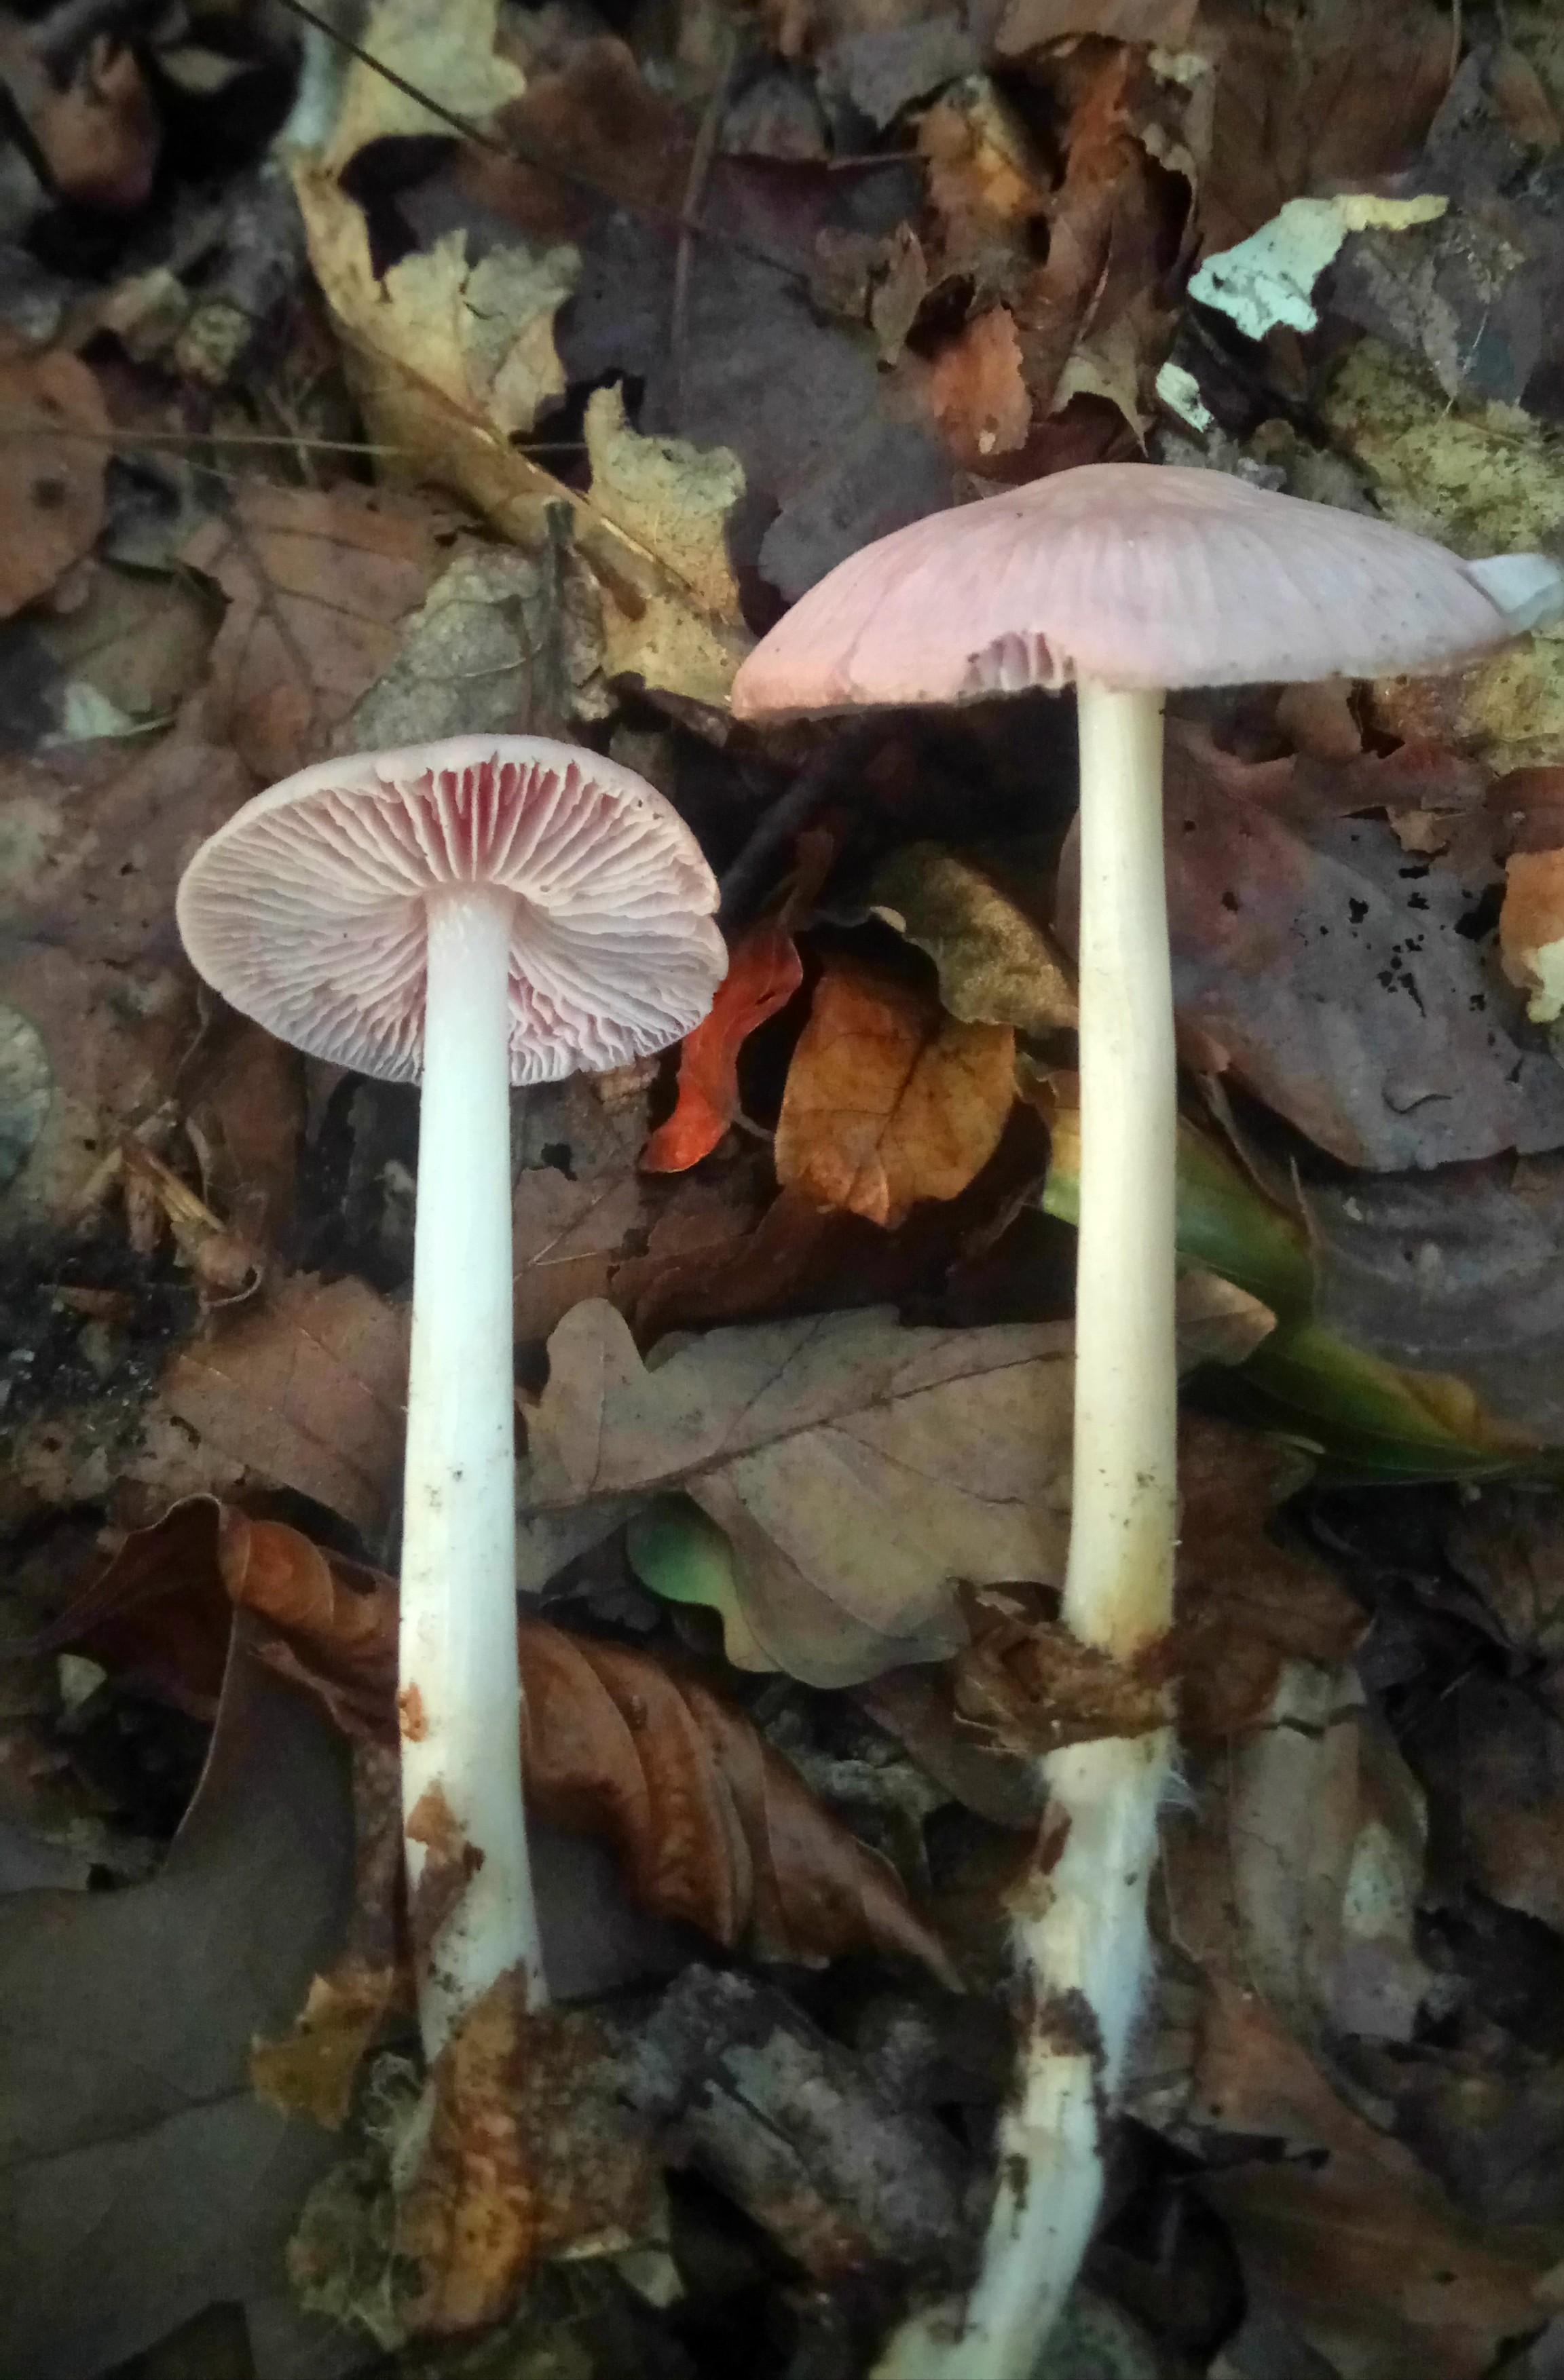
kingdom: Fungi
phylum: Basidiomycota
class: Agaricomycetes
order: Agaricales
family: Mycenaceae
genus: Mycena
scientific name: Mycena rosea
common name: rosa huesvamp
